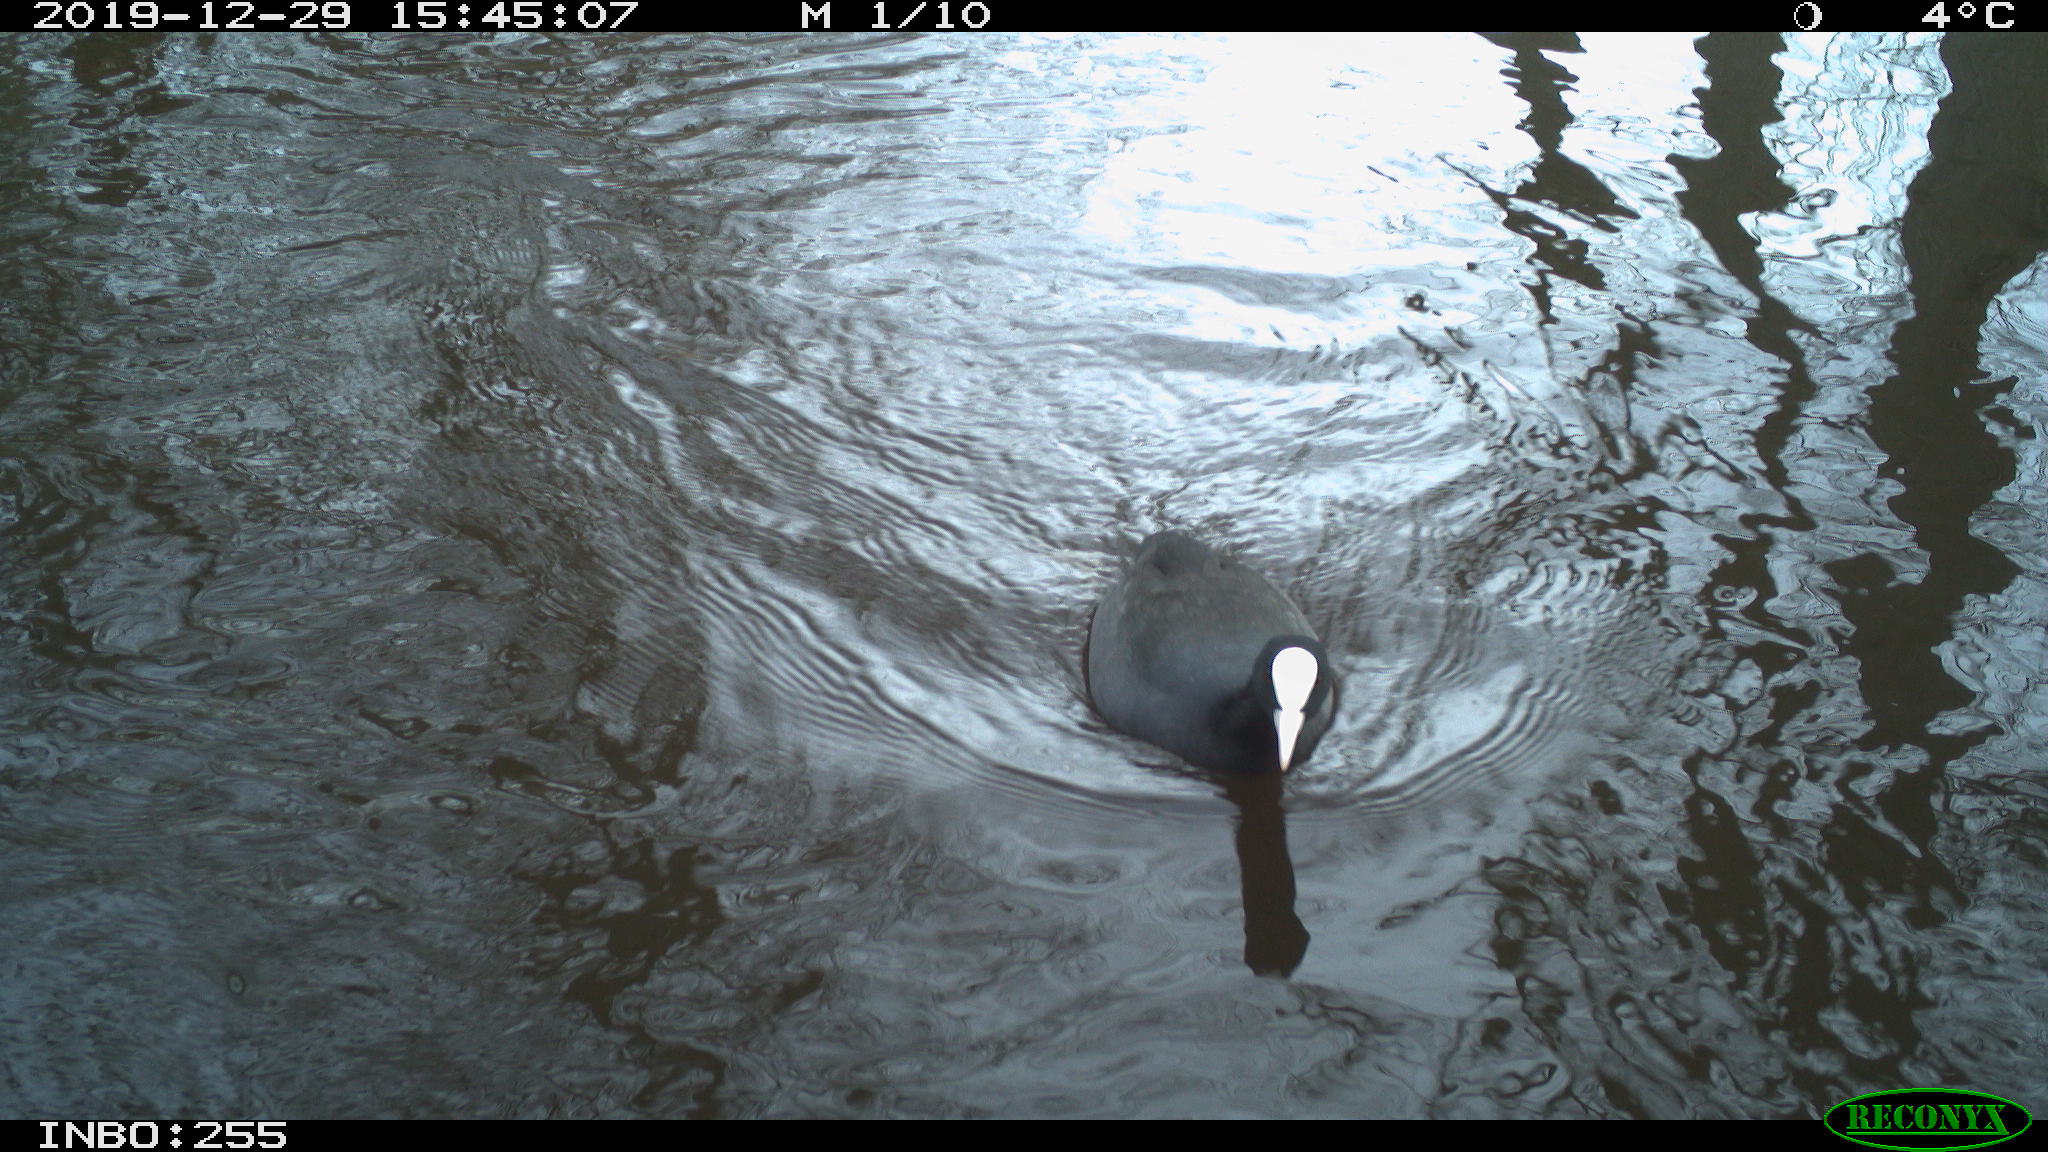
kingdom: Animalia
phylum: Chordata
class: Aves
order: Gruiformes
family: Rallidae
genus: Fulica
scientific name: Fulica atra
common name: Eurasian coot
